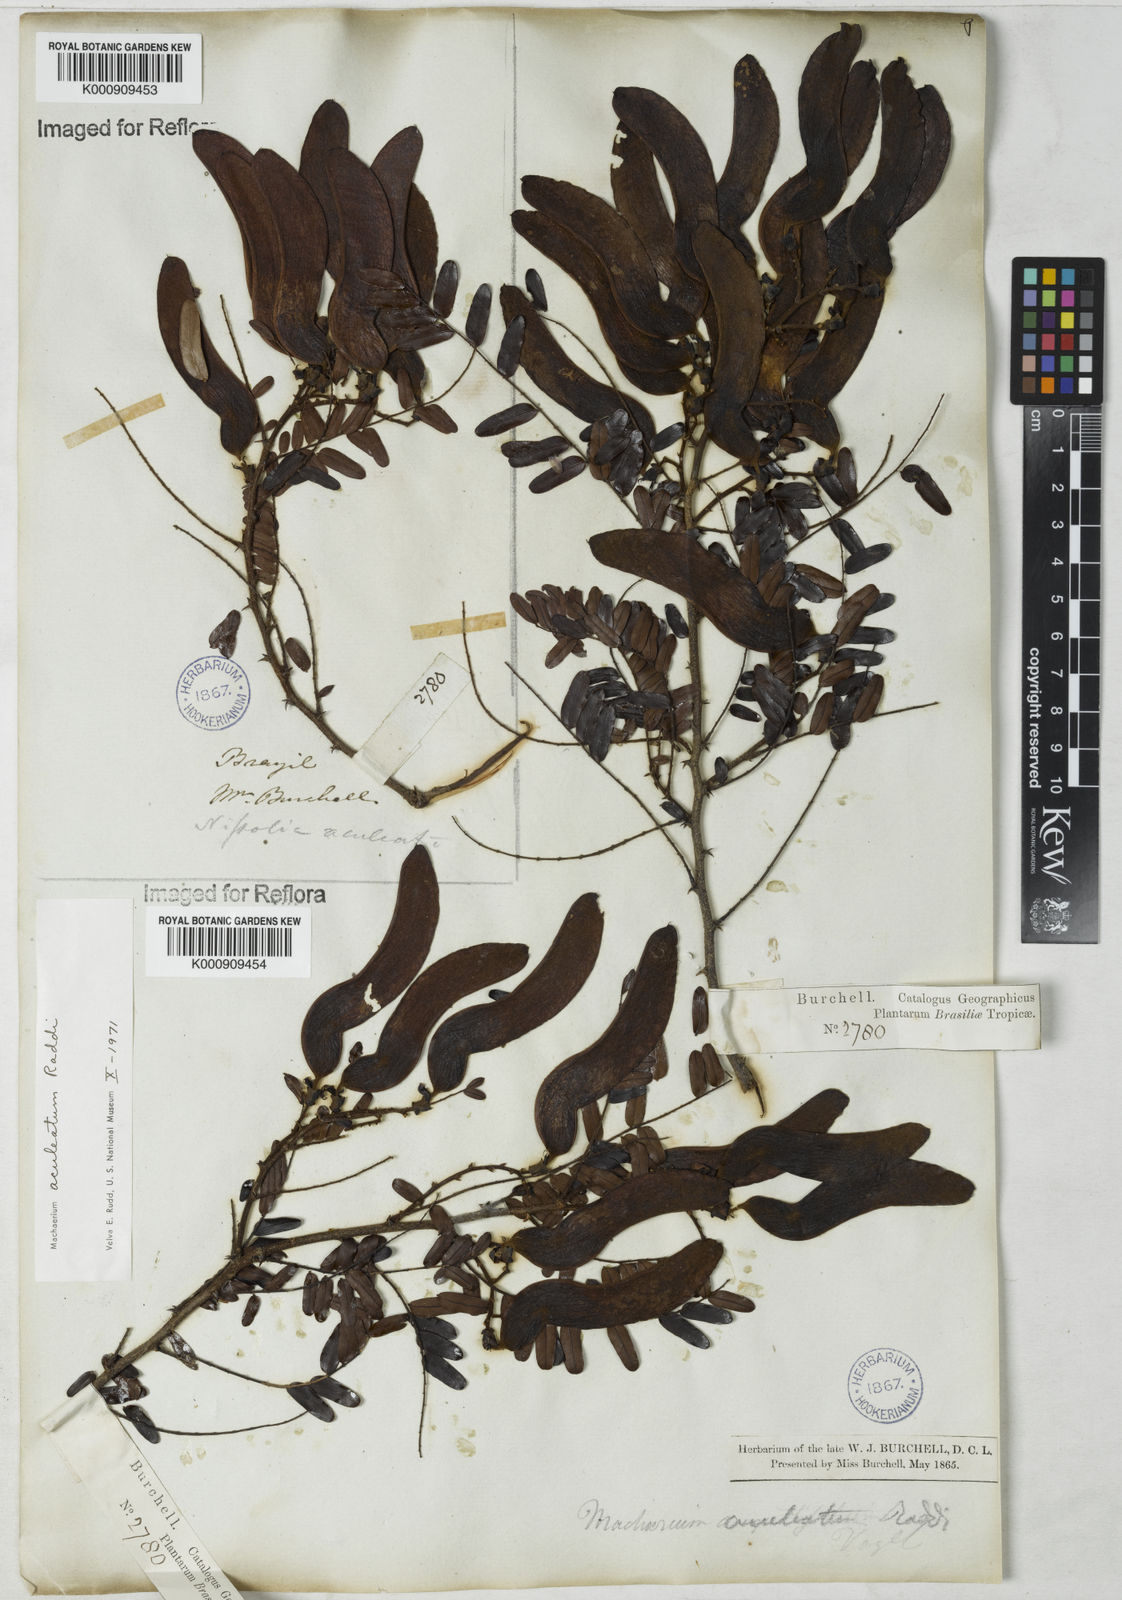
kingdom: Plantae
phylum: Tracheophyta
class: Magnoliopsida
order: Fabales
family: Fabaceae
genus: Machaerium
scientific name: Machaerium aculeatum
